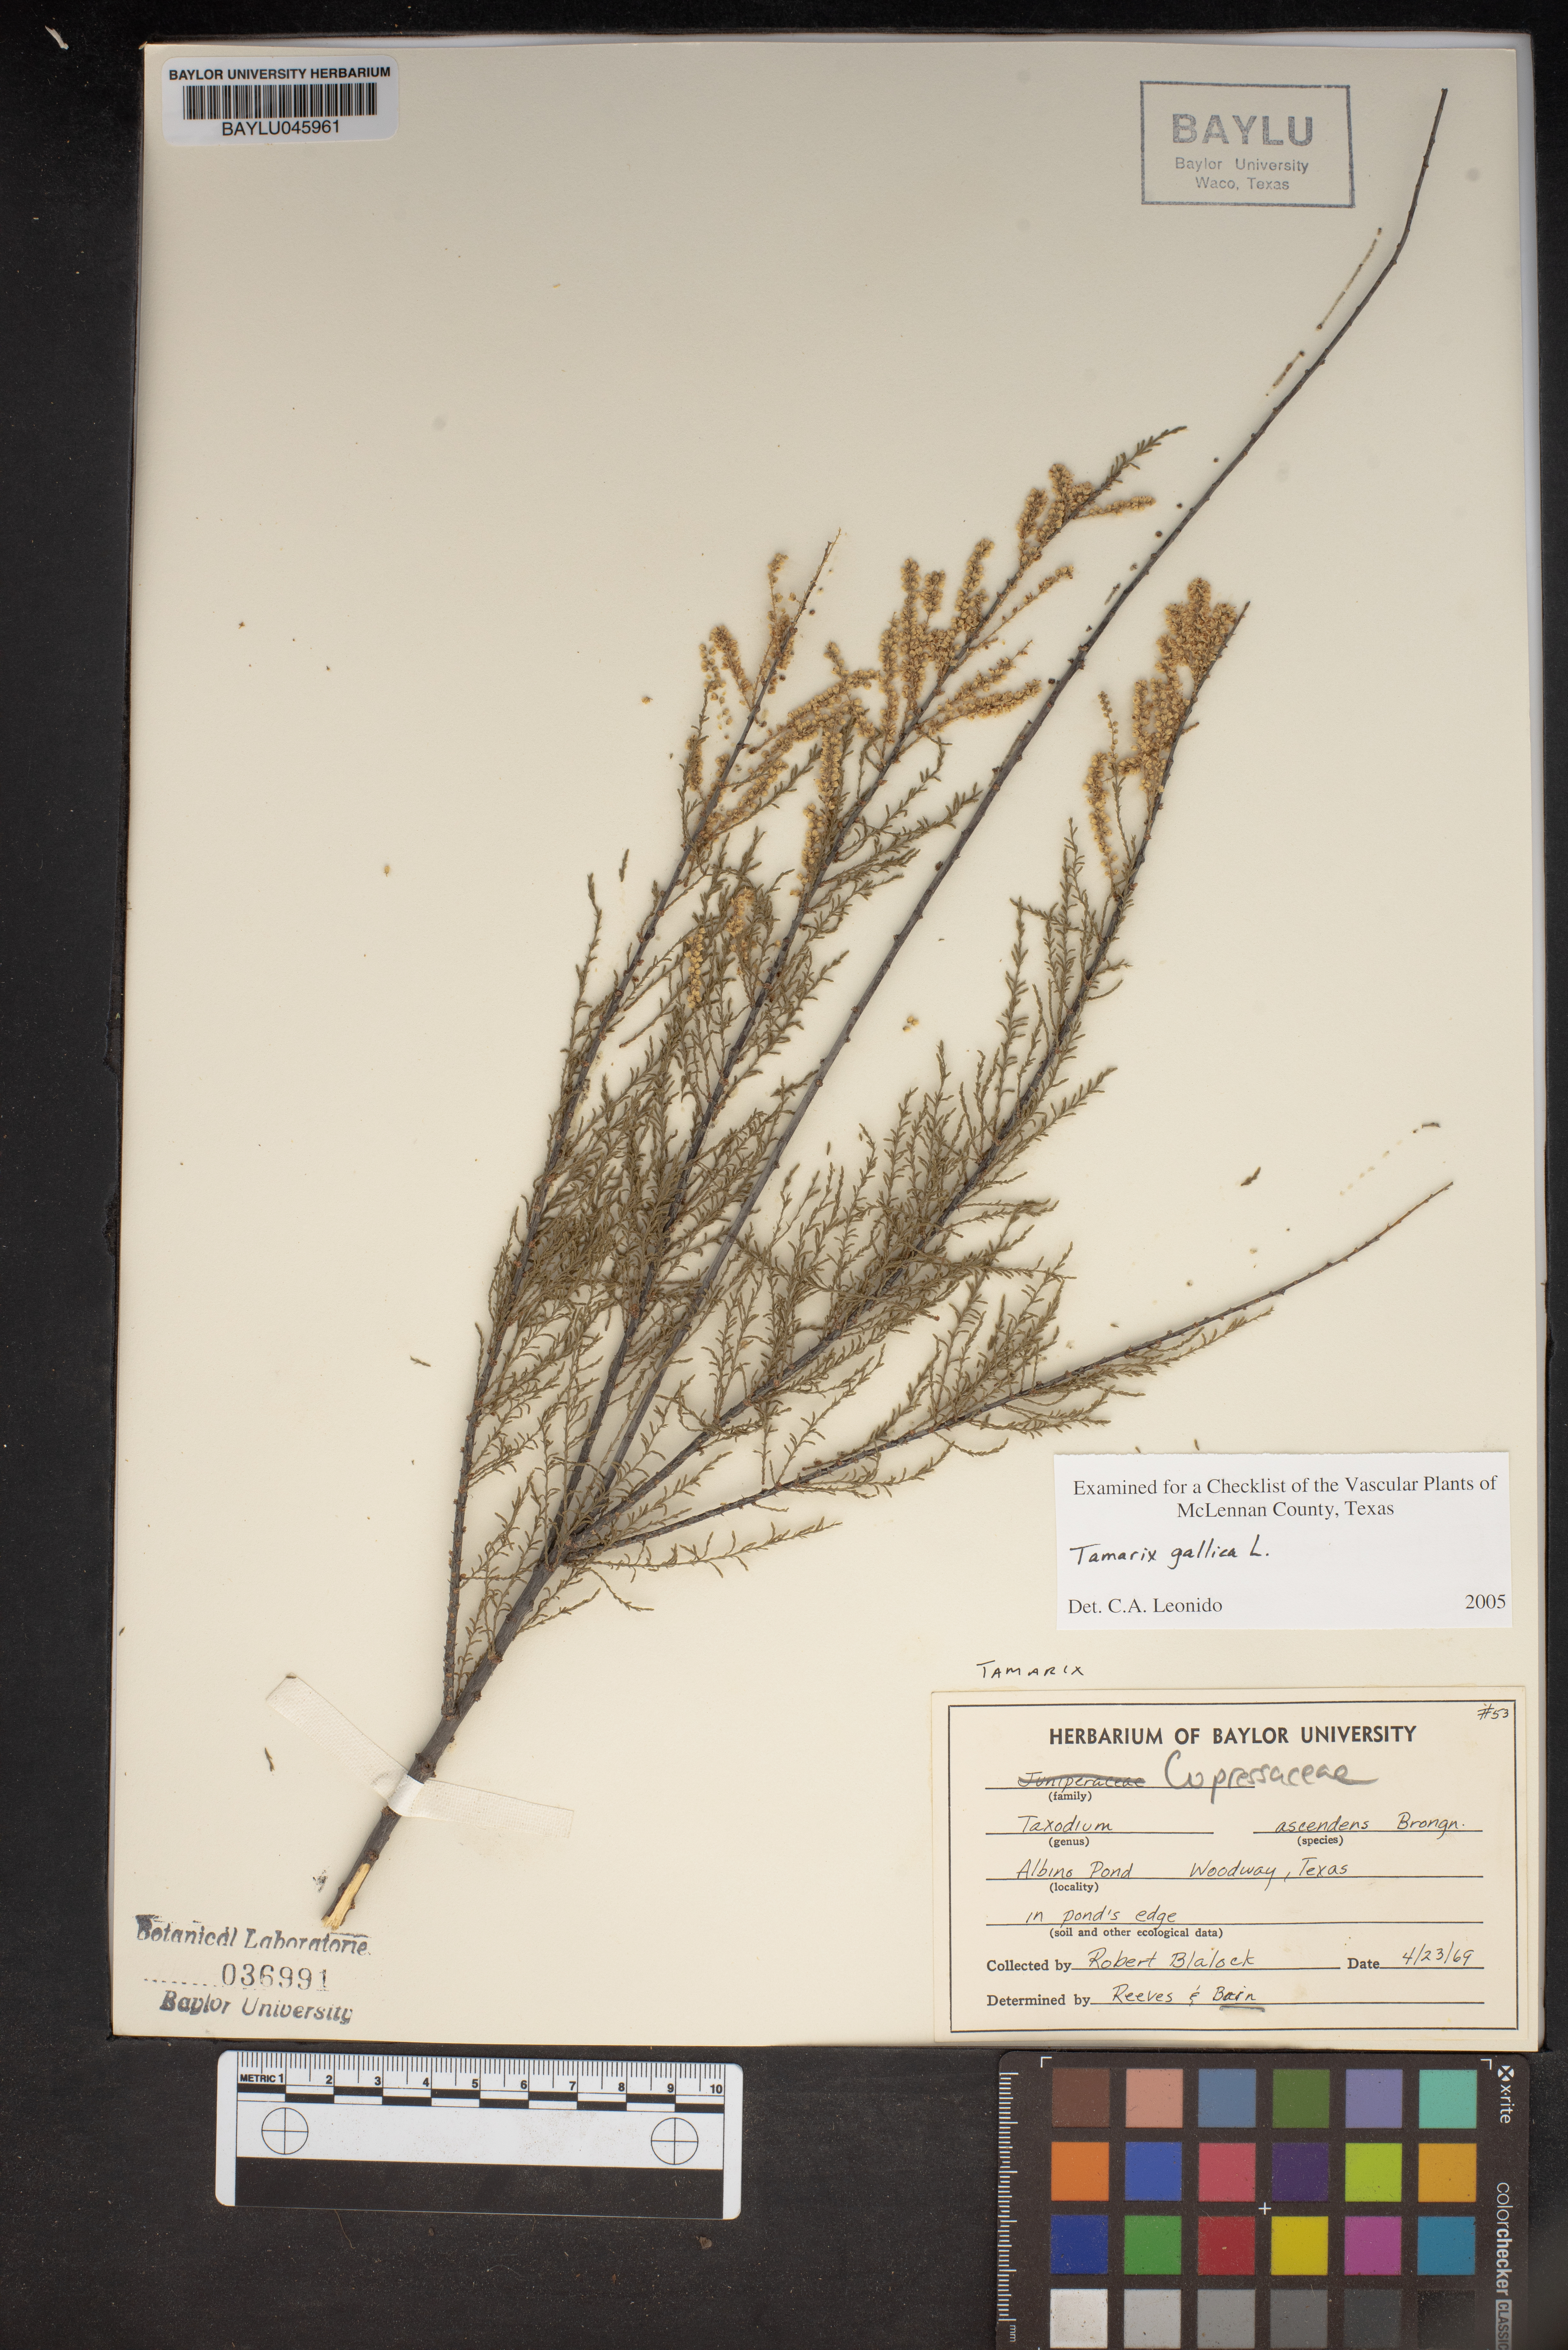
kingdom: Plantae
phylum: Tracheophyta
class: Pinopsida
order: Pinales
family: Cupressaceae
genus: Taxodium
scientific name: Taxodium distichum
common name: Bald cypress
